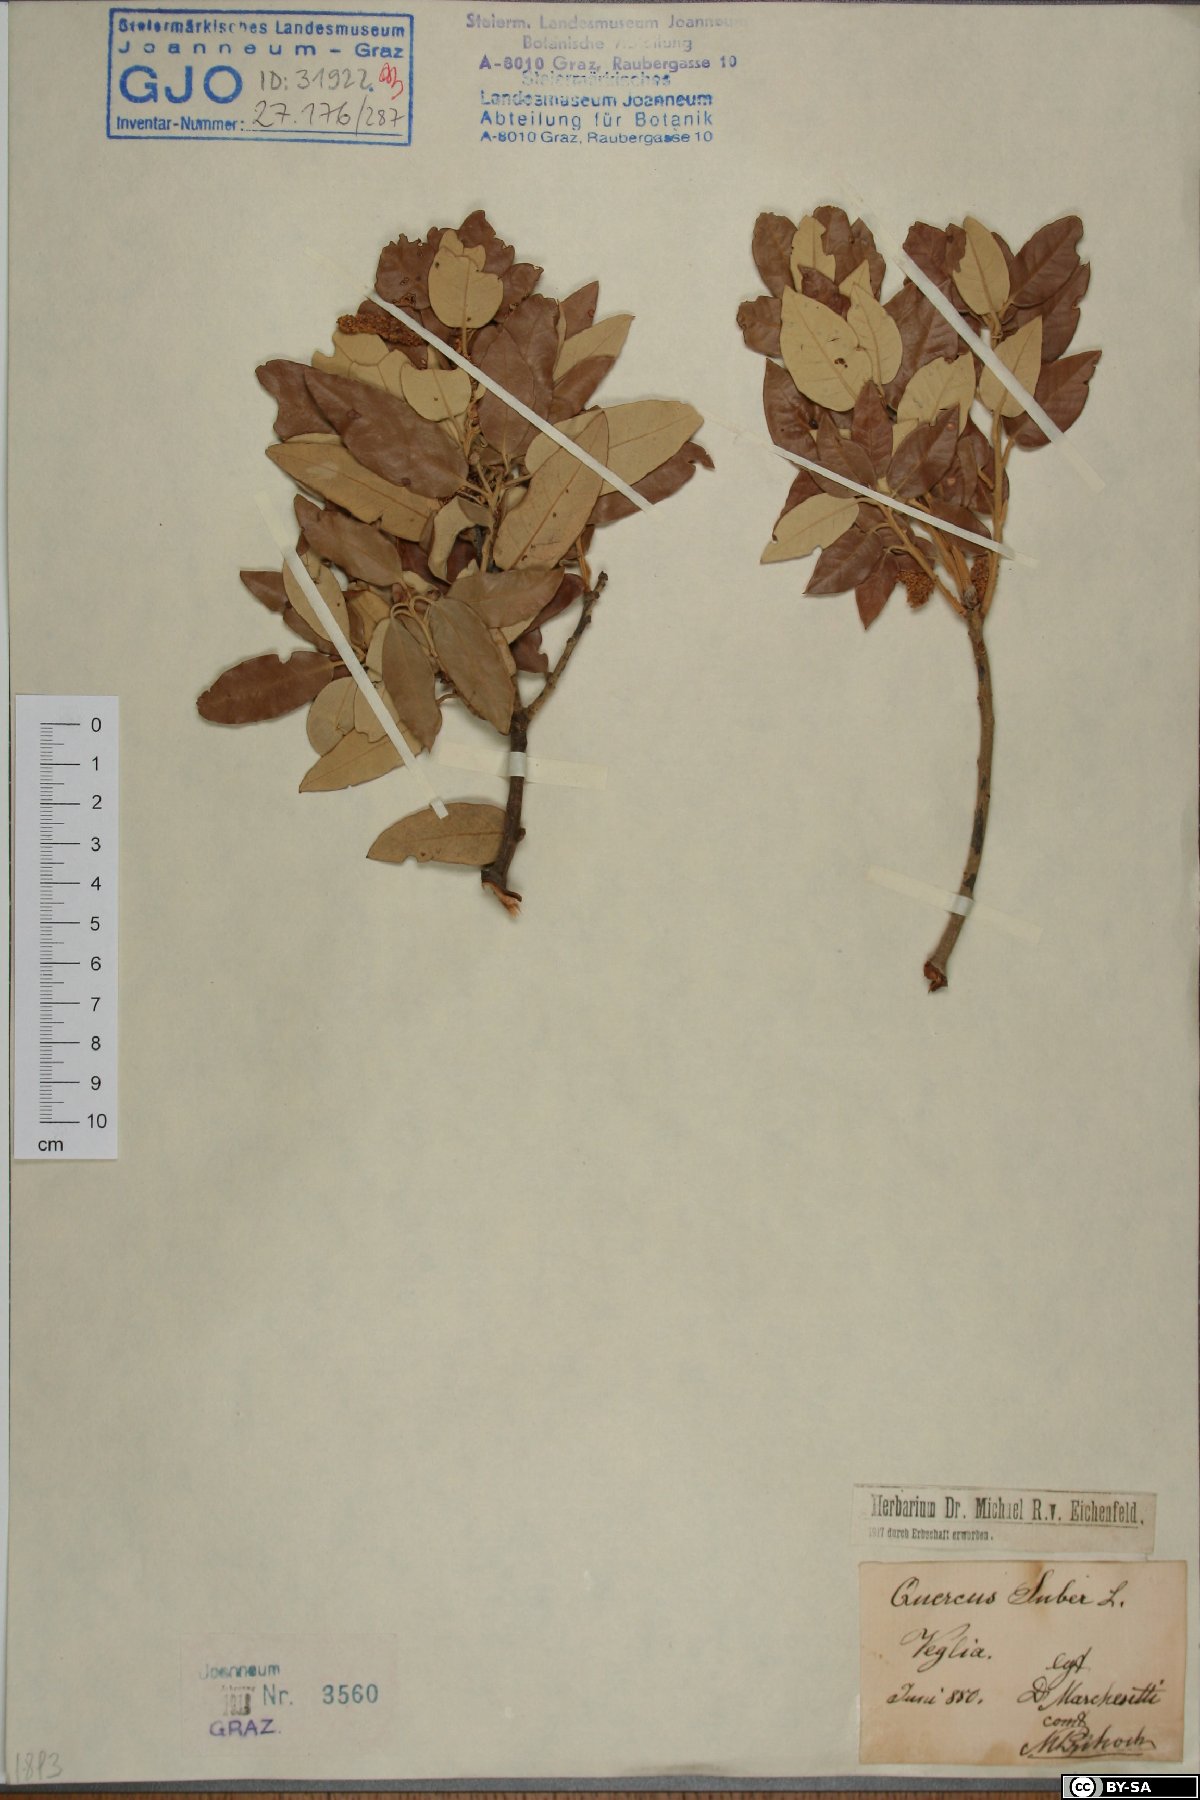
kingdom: Plantae
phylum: Tracheophyta
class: Magnoliopsida
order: Fagales
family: Fagaceae
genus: Quercus
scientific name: Quercus suber
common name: Cork oak
